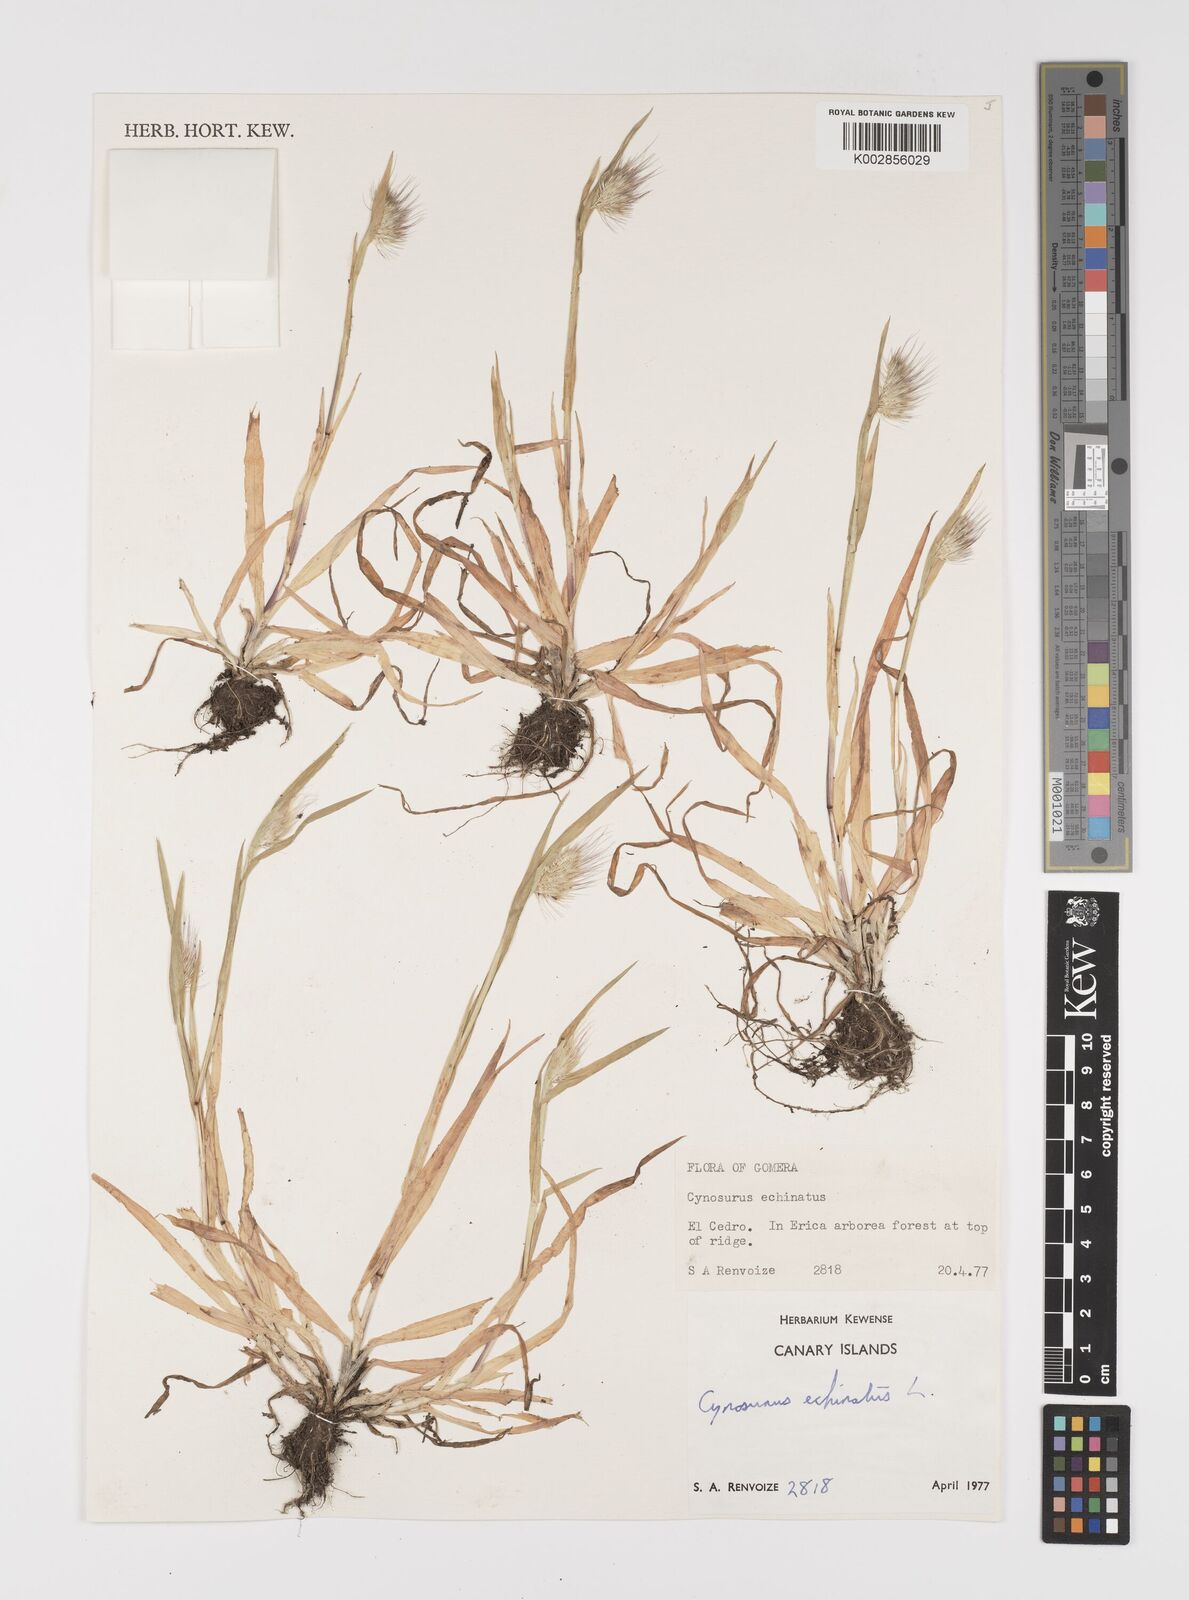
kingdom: Plantae
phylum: Tracheophyta
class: Liliopsida
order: Poales
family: Poaceae
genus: Cynosurus
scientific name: Cynosurus echinatus
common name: Rough dog's-tail
